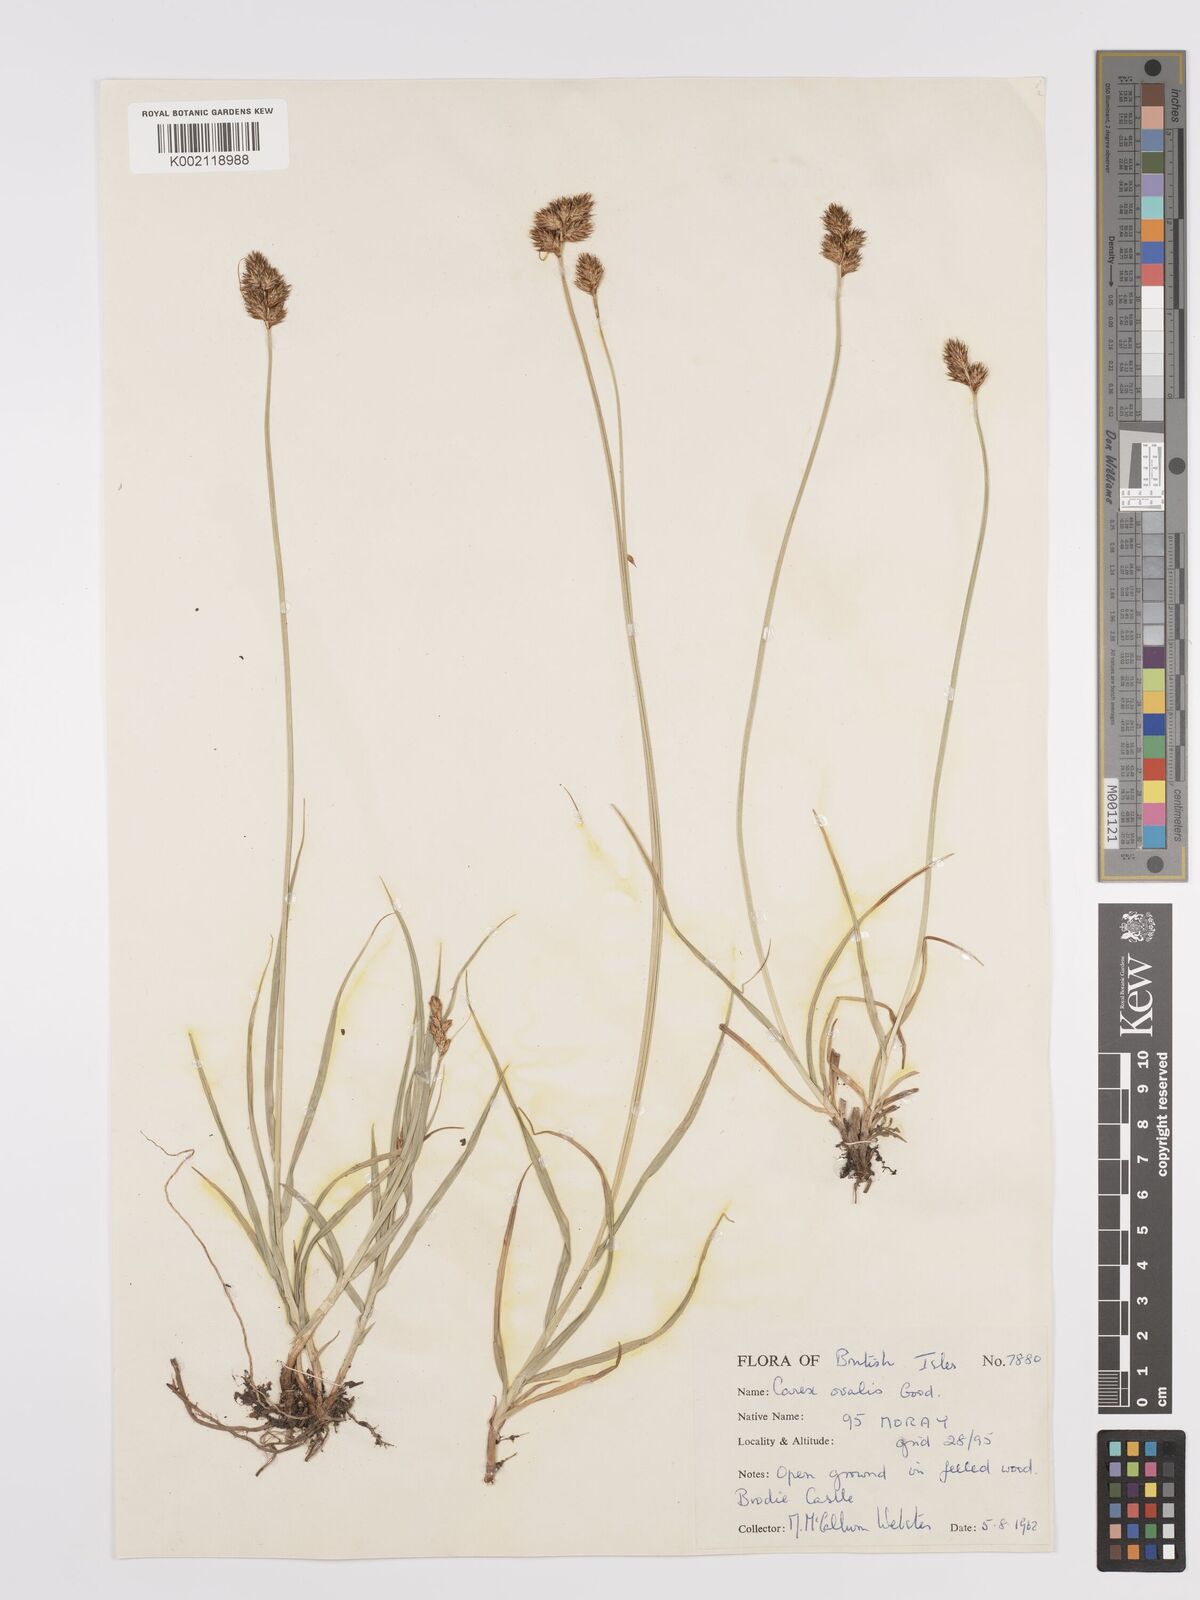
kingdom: Plantae
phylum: Tracheophyta
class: Liliopsida
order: Poales
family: Cyperaceae
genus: Carex
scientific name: Carex leporina
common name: Oval sedge
